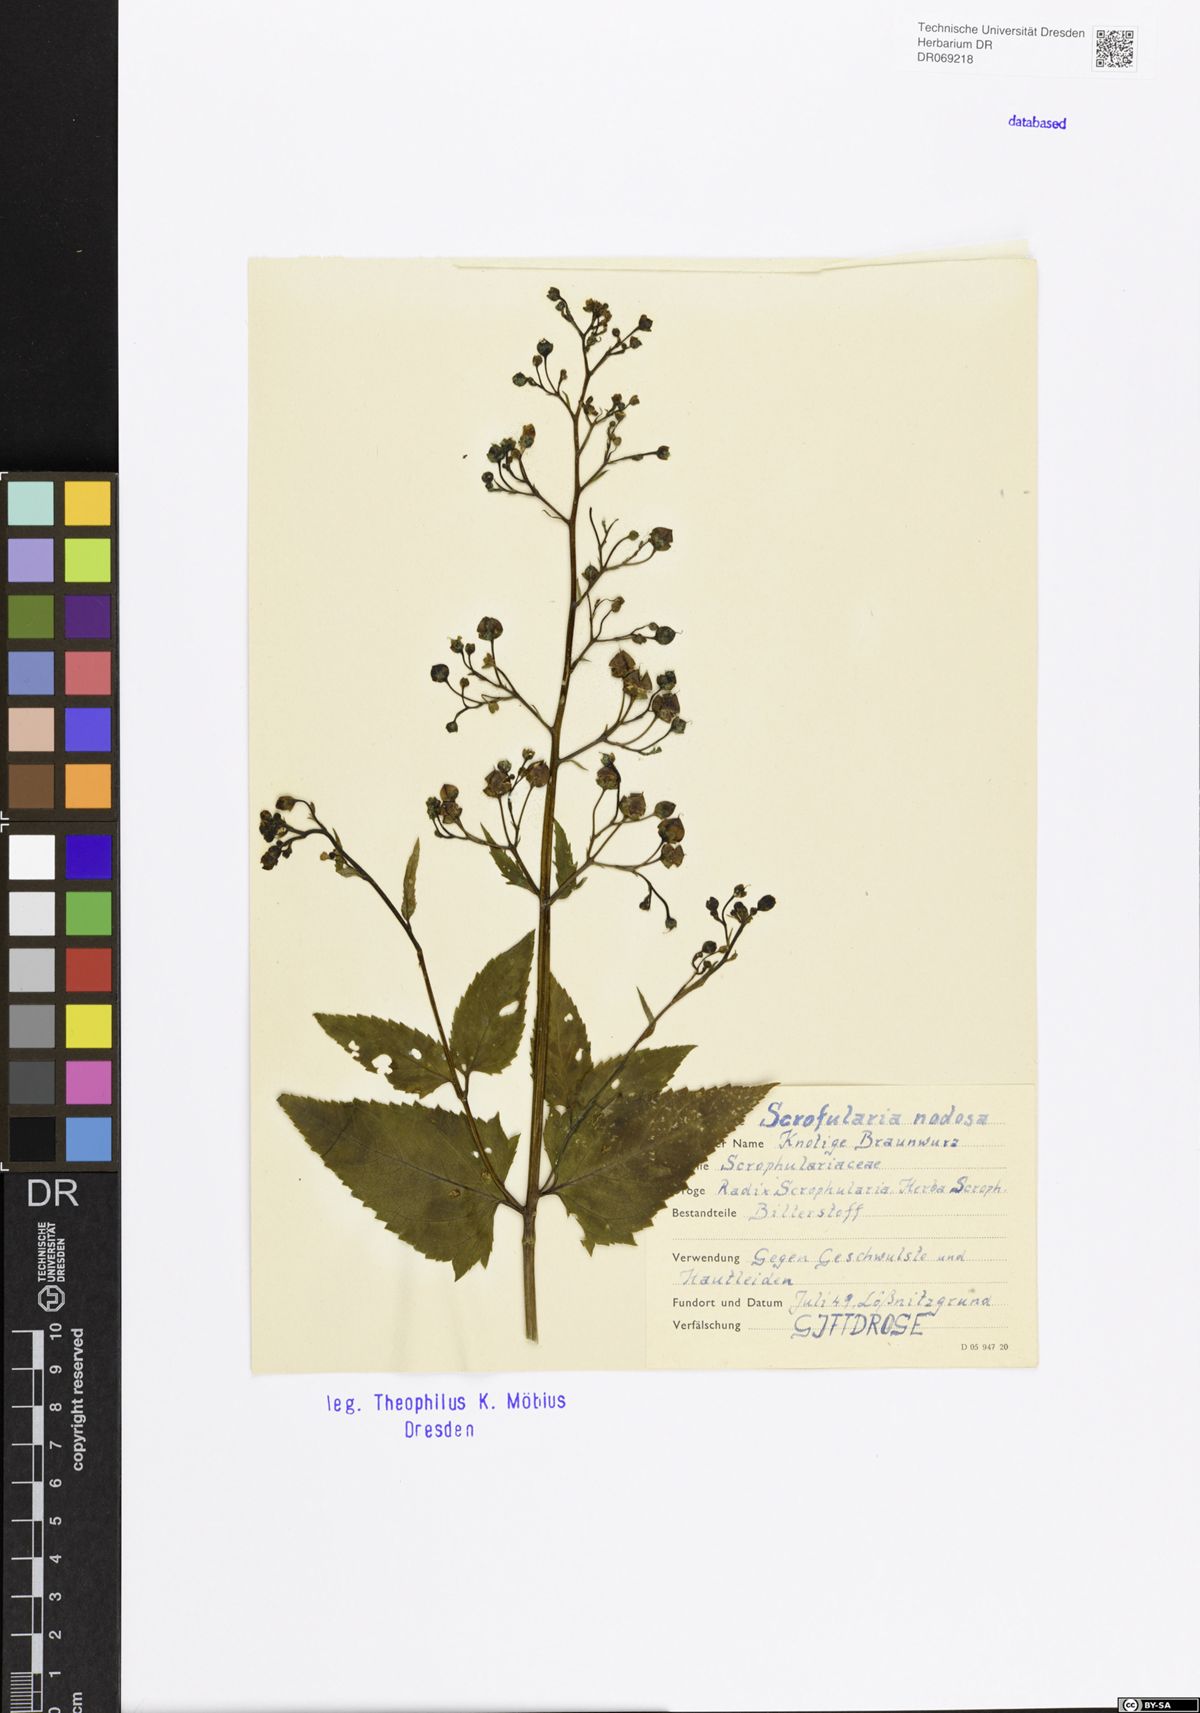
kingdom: Plantae
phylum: Tracheophyta
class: Magnoliopsida
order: Lamiales
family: Scrophulariaceae
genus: Scrophularia
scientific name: Scrophularia nodosa
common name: Common figwort
